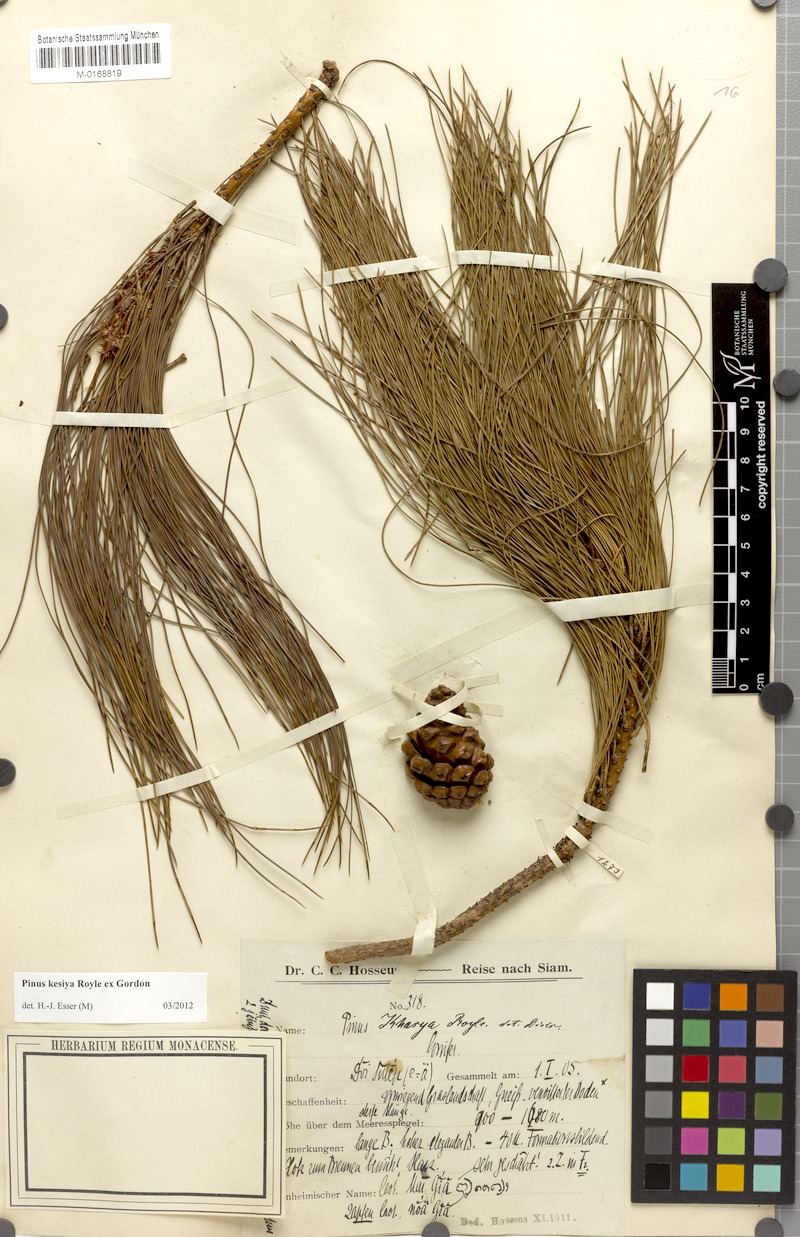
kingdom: Plantae
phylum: Tracheophyta
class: Pinopsida
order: Pinales
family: Pinaceae
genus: Pinus
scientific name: Pinus kesiya
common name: Benguet pine
